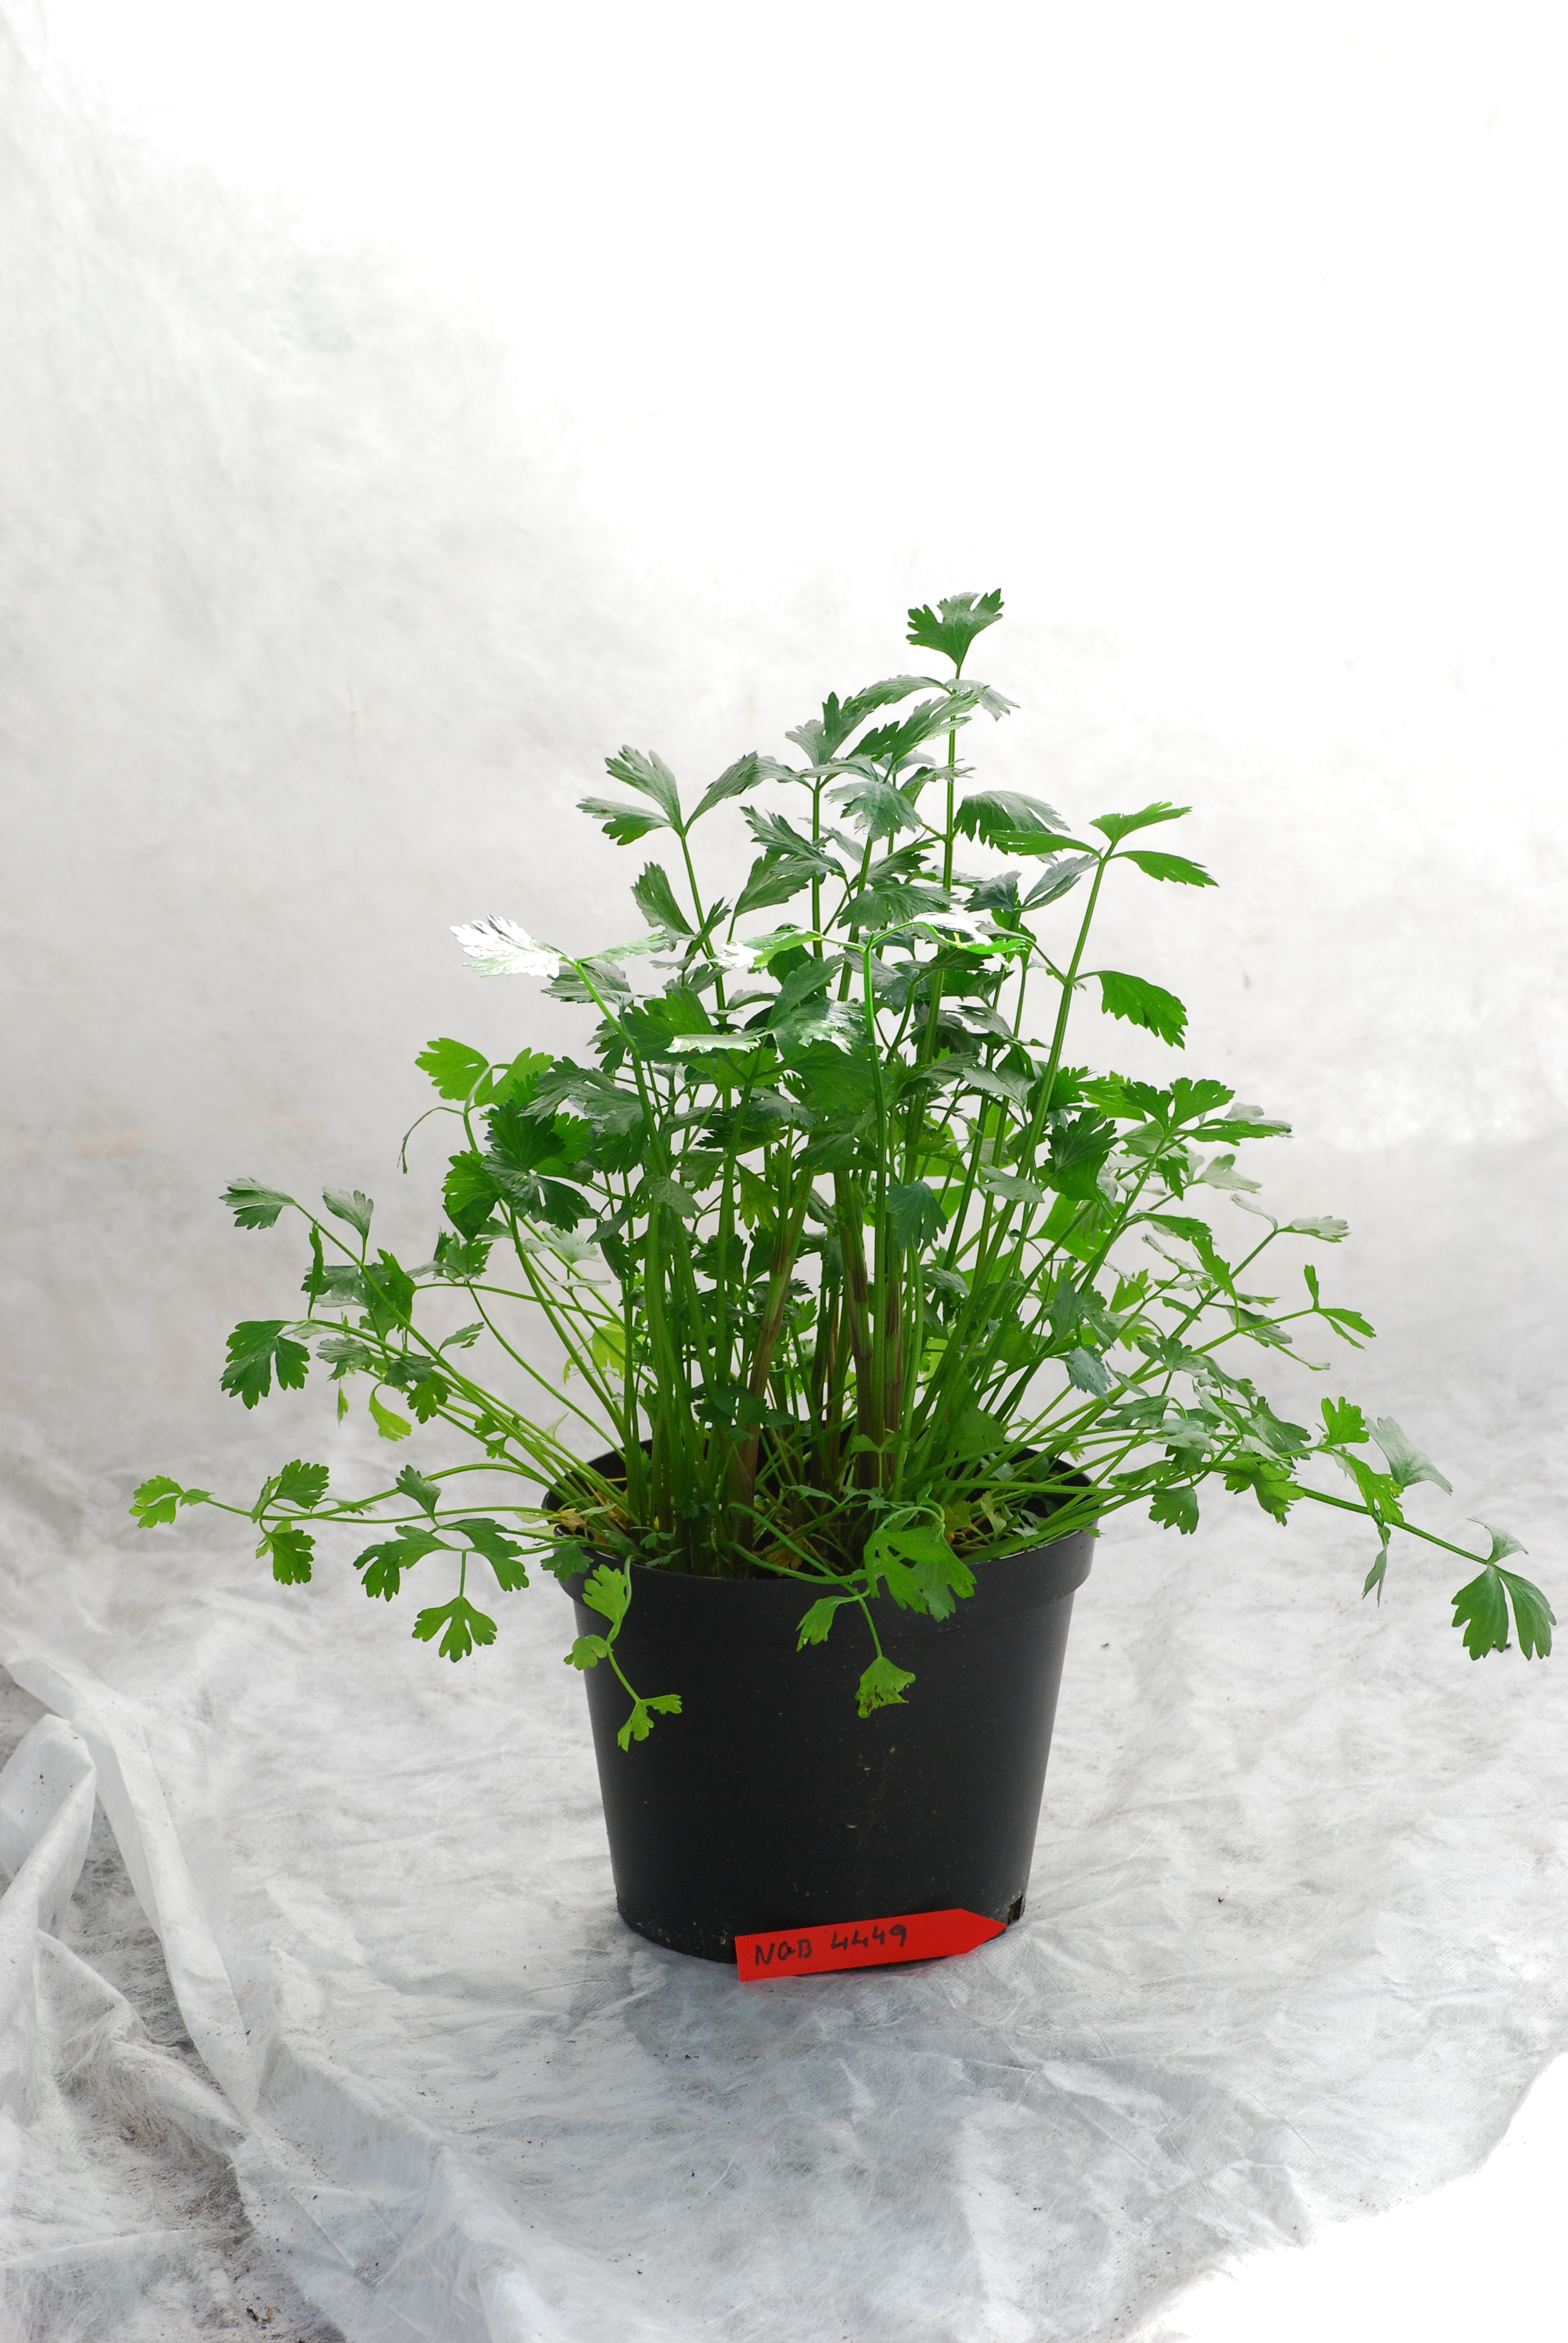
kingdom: Plantae
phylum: Tracheophyta
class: Magnoliopsida
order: Apiales
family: Apiaceae
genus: Apium
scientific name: Apium graveolens
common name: Wild celery
